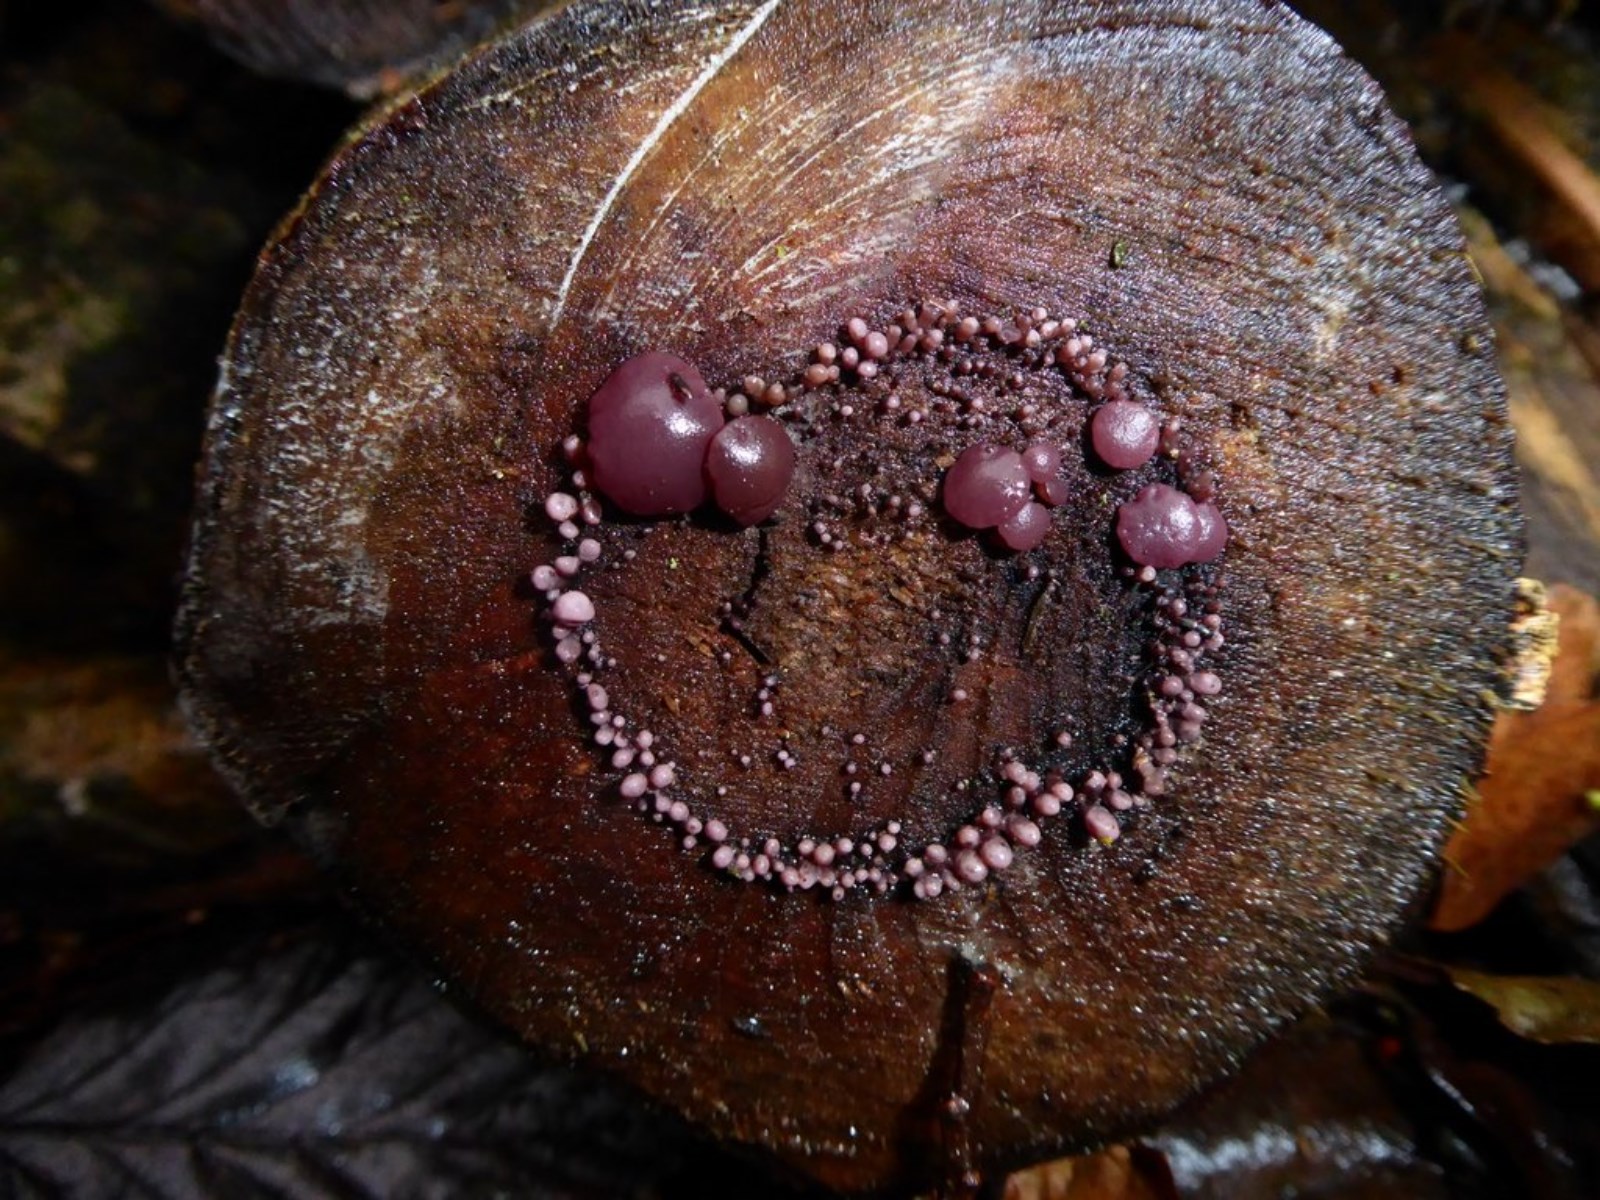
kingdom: Fungi
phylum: Ascomycota
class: Leotiomycetes
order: Helotiales
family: Gelatinodiscaceae
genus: Ascocoryne
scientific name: Ascocoryne sarcoides
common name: rødlilla sejskive
